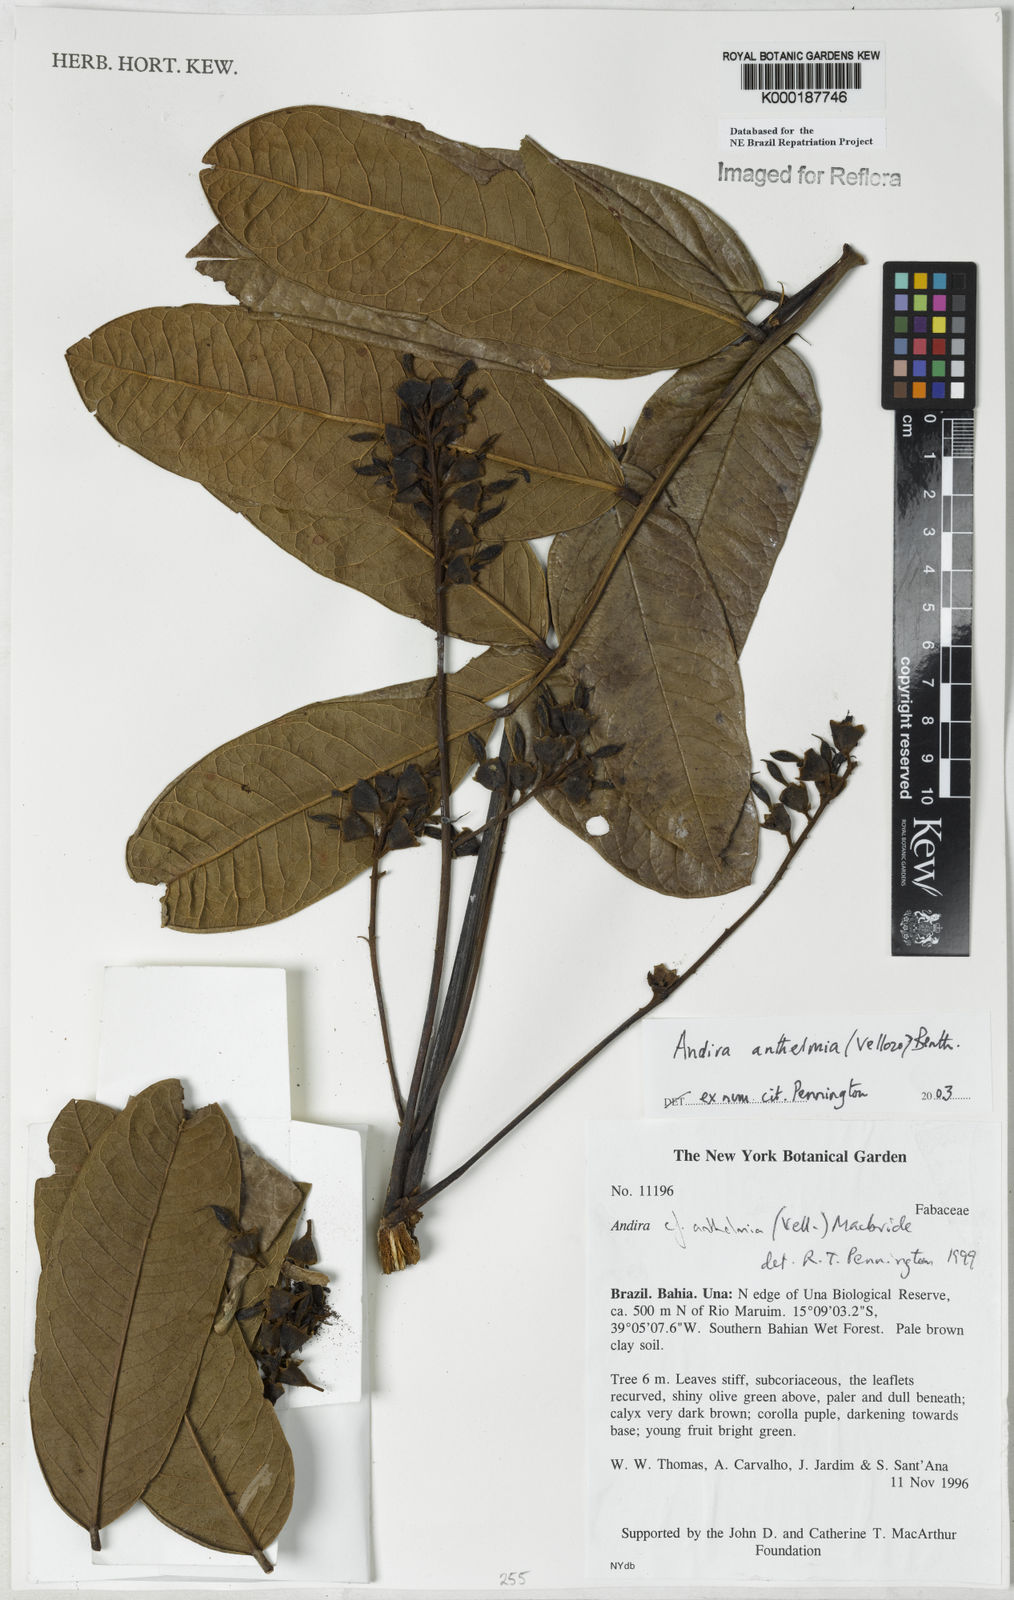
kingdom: Plantae
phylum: Tracheophyta
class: Magnoliopsida
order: Fabales
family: Fabaceae
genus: Andira
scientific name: Andira
